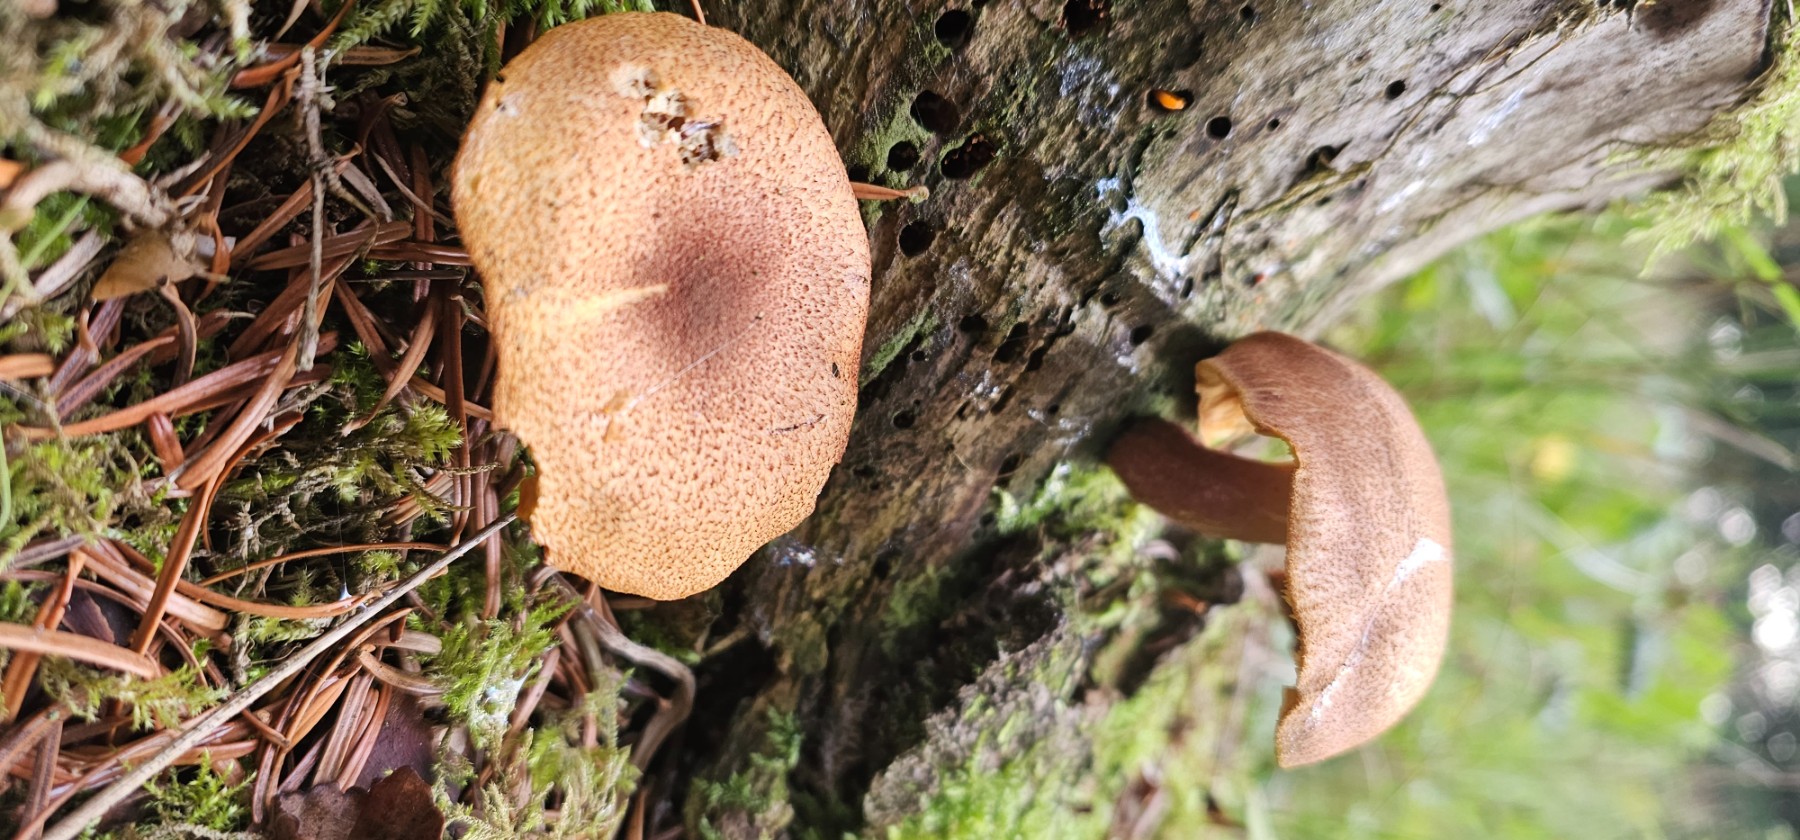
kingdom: Fungi
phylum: Basidiomycota
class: Agaricomycetes
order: Agaricales
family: Tricholomataceae
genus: Tricholomopsis
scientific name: Tricholomopsis rutilans
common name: purpur-væbnerhat
